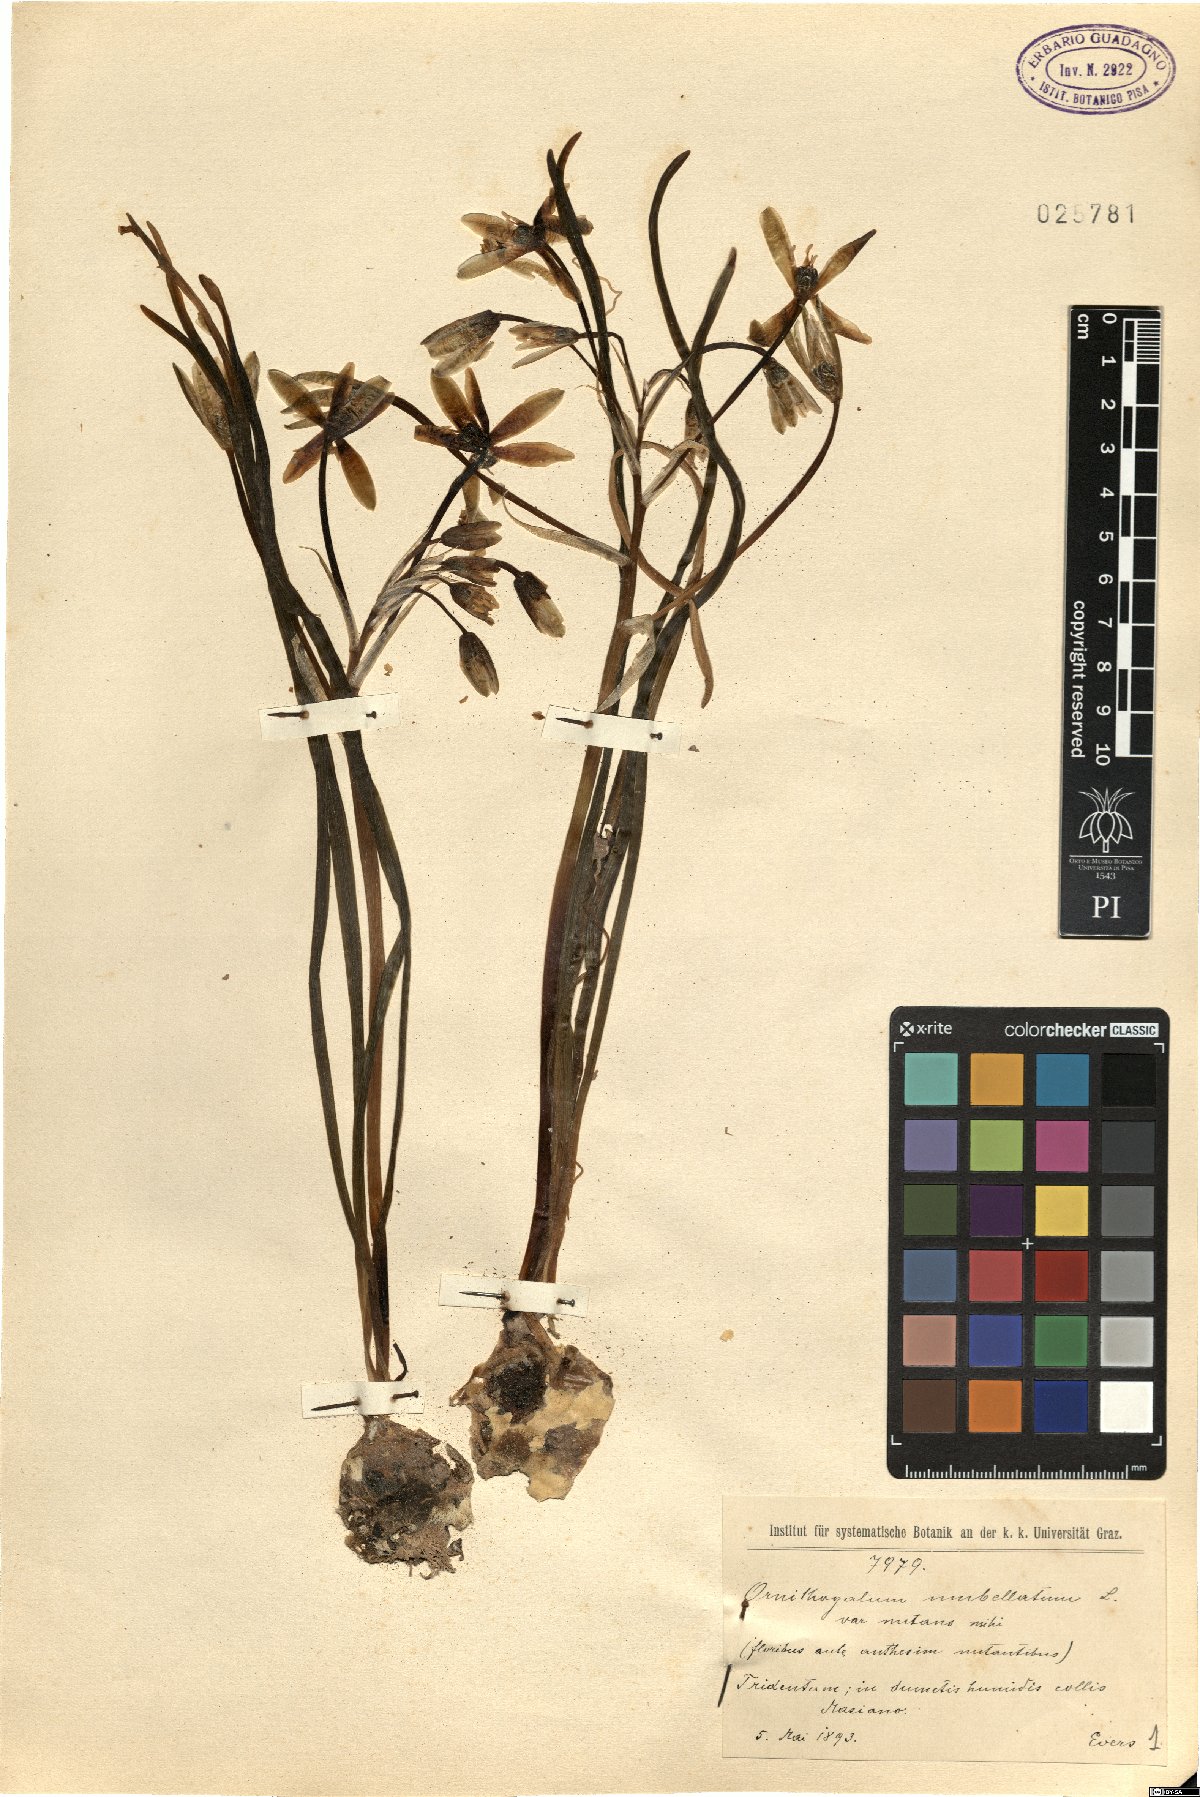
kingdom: Plantae
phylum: Tracheophyta
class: Liliopsida
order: Asparagales
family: Asparagaceae
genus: Ornithogalum
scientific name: Ornithogalum umbellatum
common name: Garden star-of-bethlehem
